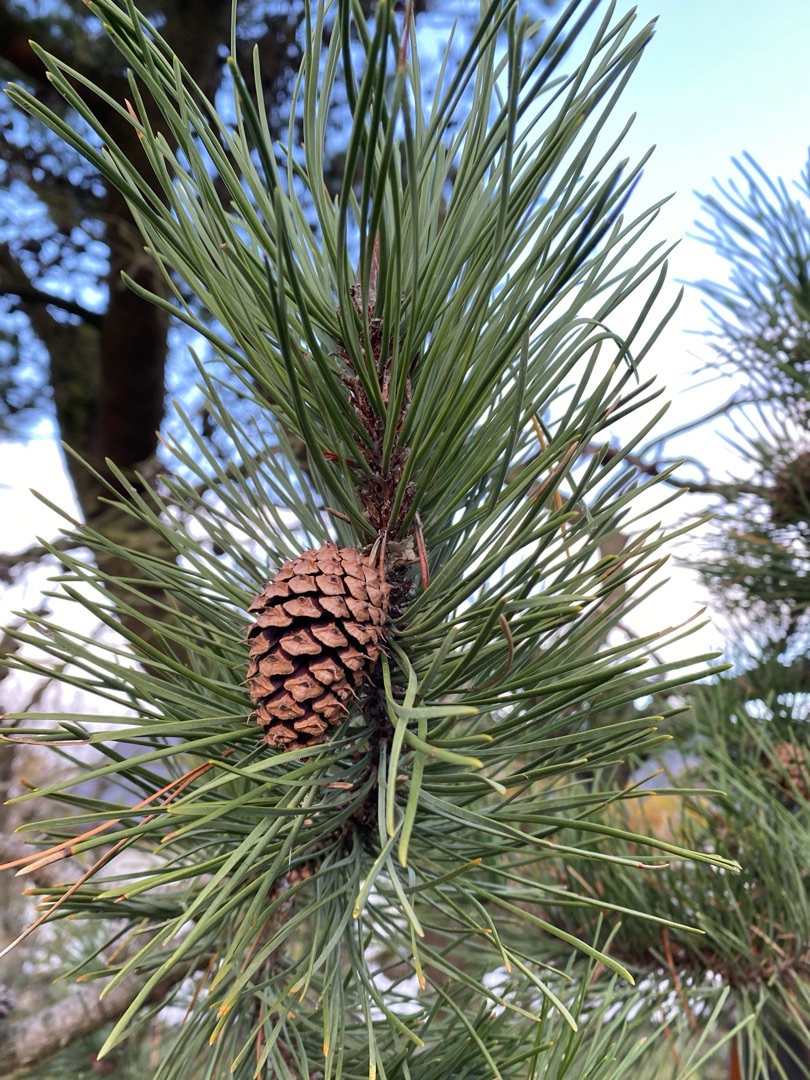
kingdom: Plantae
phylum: Tracheophyta
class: Pinopsida
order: Pinales
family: Pinaceae
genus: Pinus
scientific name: Pinus sylvestris
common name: Skov-fyr
